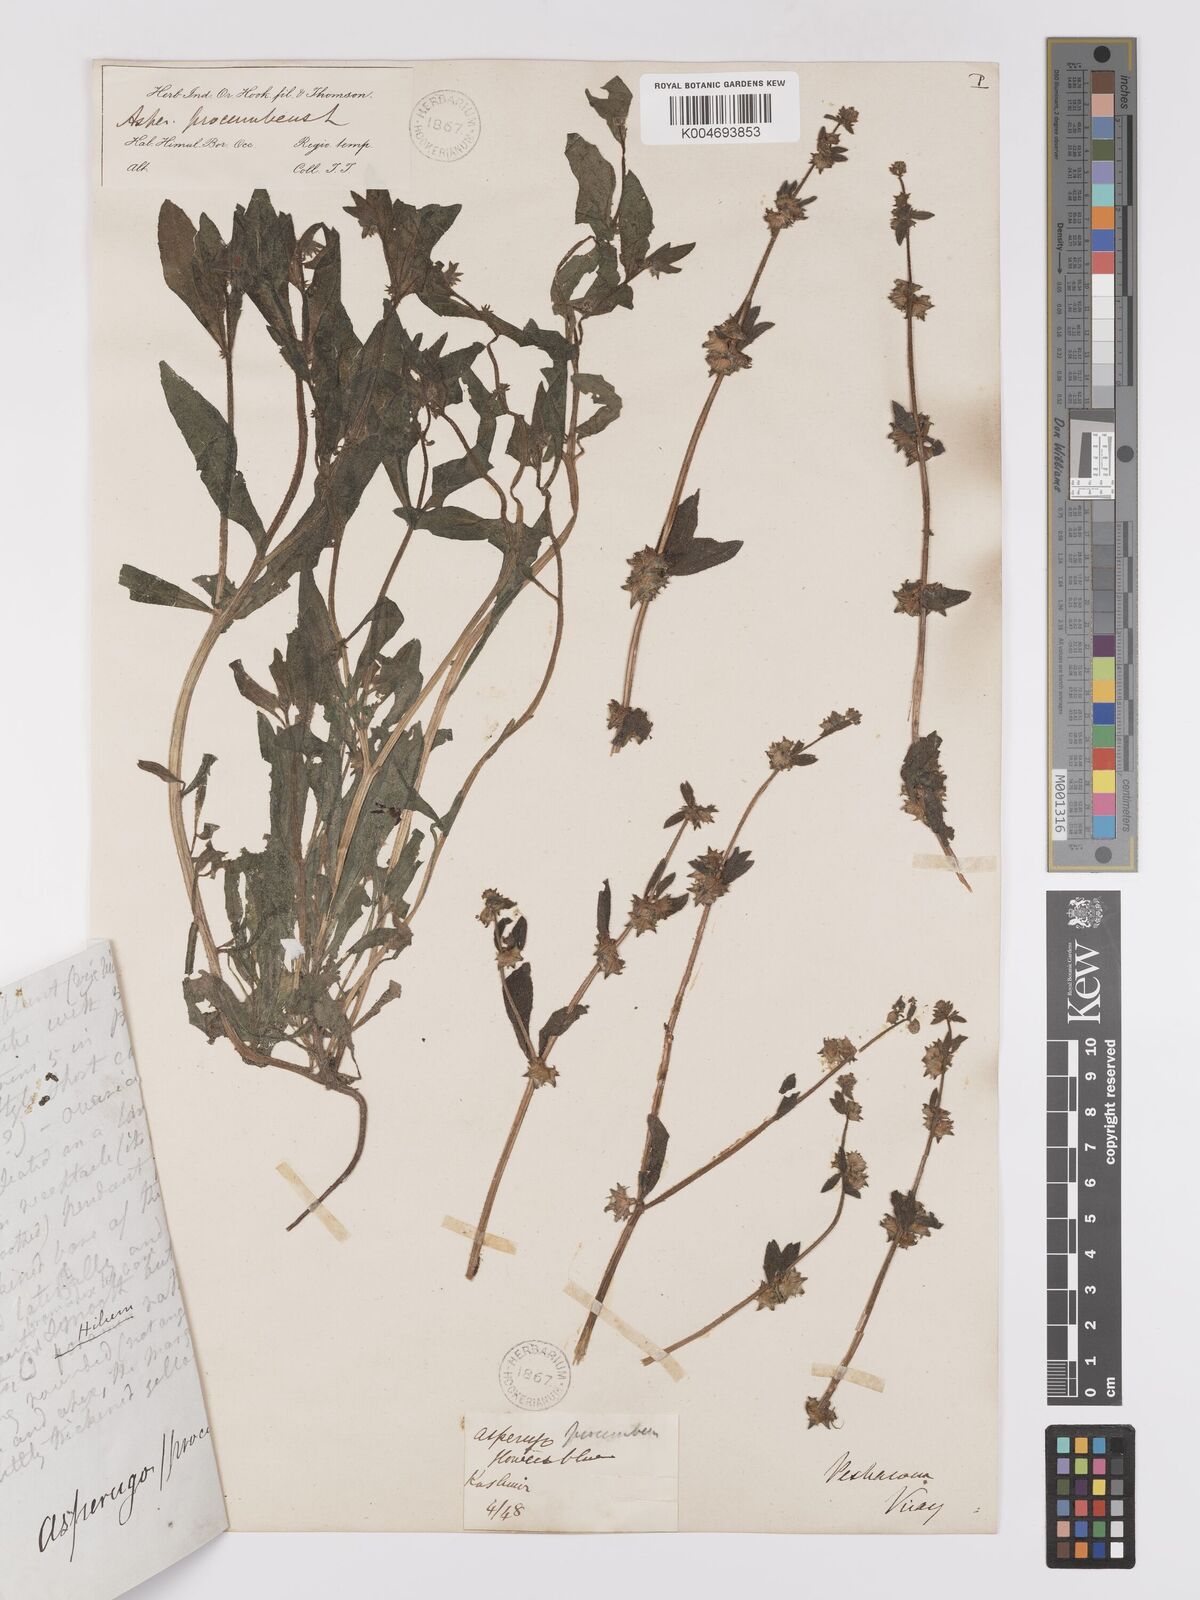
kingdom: Plantae
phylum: Tracheophyta
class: Magnoliopsida
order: Boraginales
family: Boraginaceae
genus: Asperugo
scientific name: Asperugo procumbens
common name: Madwort
